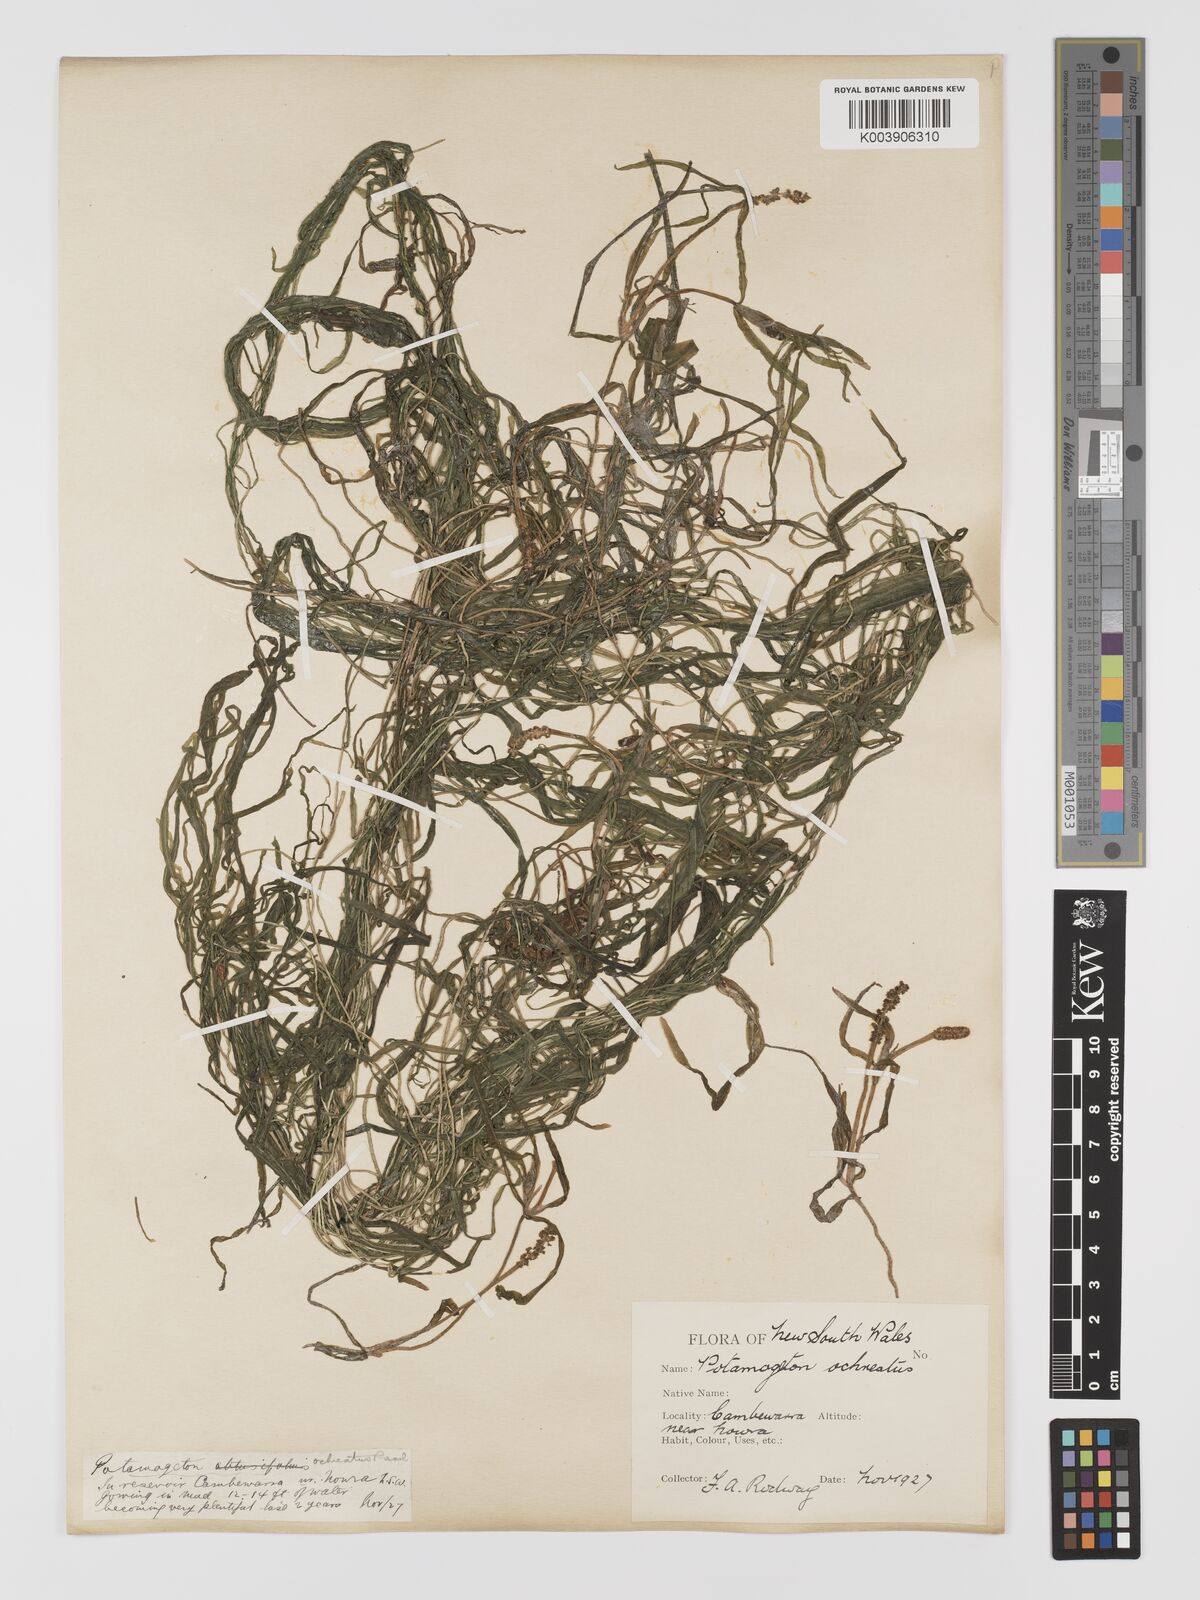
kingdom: Plantae
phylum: Tracheophyta
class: Liliopsida
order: Alismatales
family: Potamogetonaceae
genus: Potamogeton
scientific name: Potamogeton ochreatus
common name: Blunt pondweed
